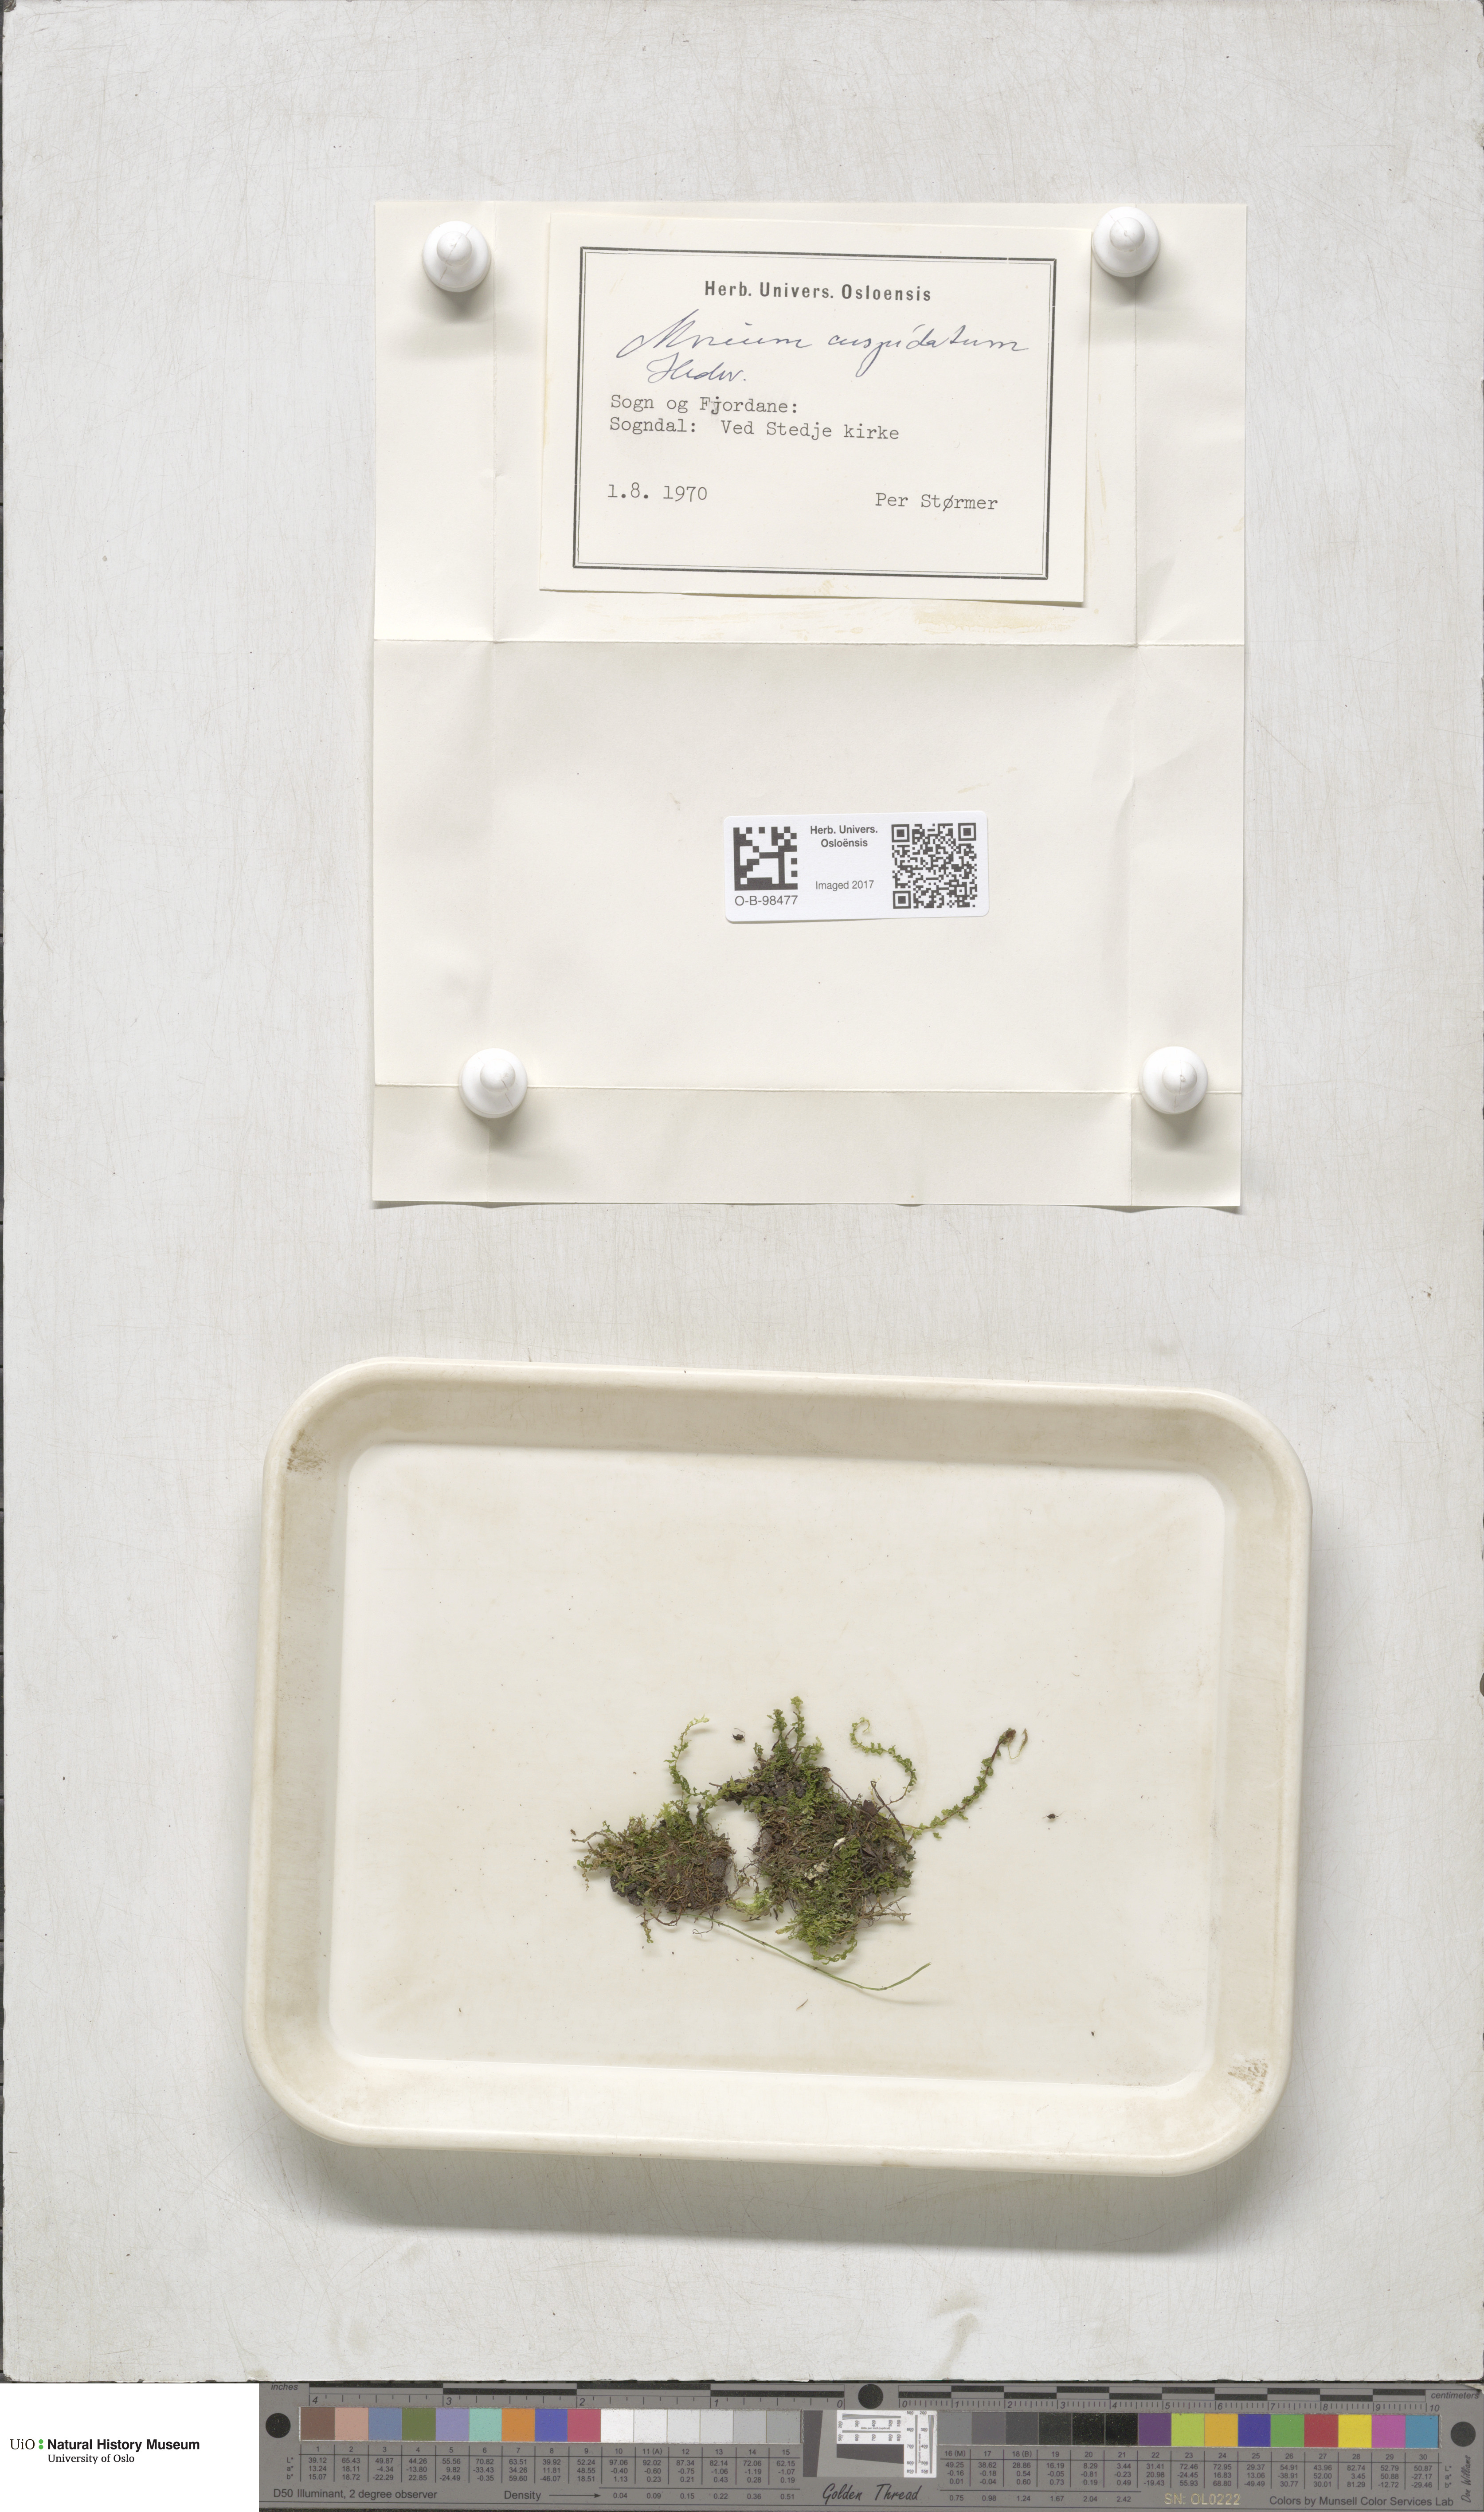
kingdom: Plantae
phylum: Bryophyta
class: Bryopsida
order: Bryales
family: Mniaceae
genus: Plagiomnium
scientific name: Plagiomnium cuspidatum
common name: Woodsy leafy moss
